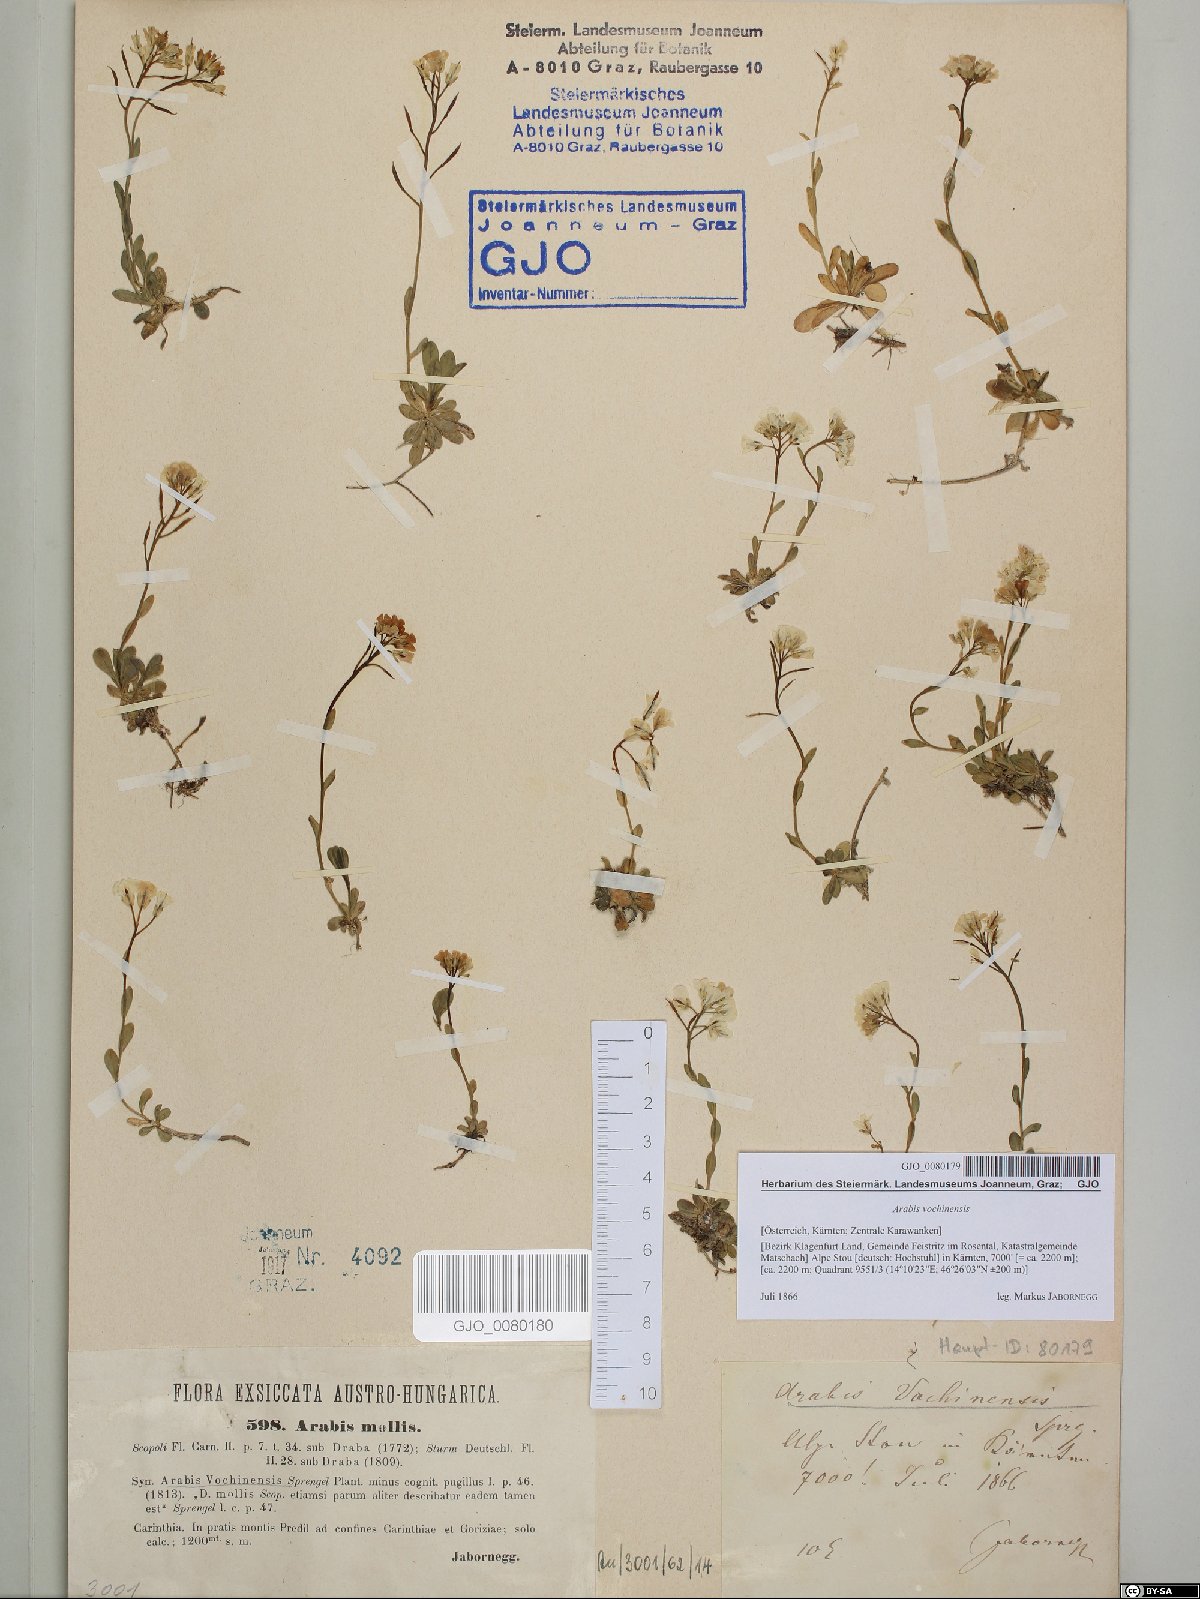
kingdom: Plantae
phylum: Tracheophyta
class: Magnoliopsida
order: Brassicales
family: Brassicaceae
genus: Arabis
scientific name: Arabis vochinensis
